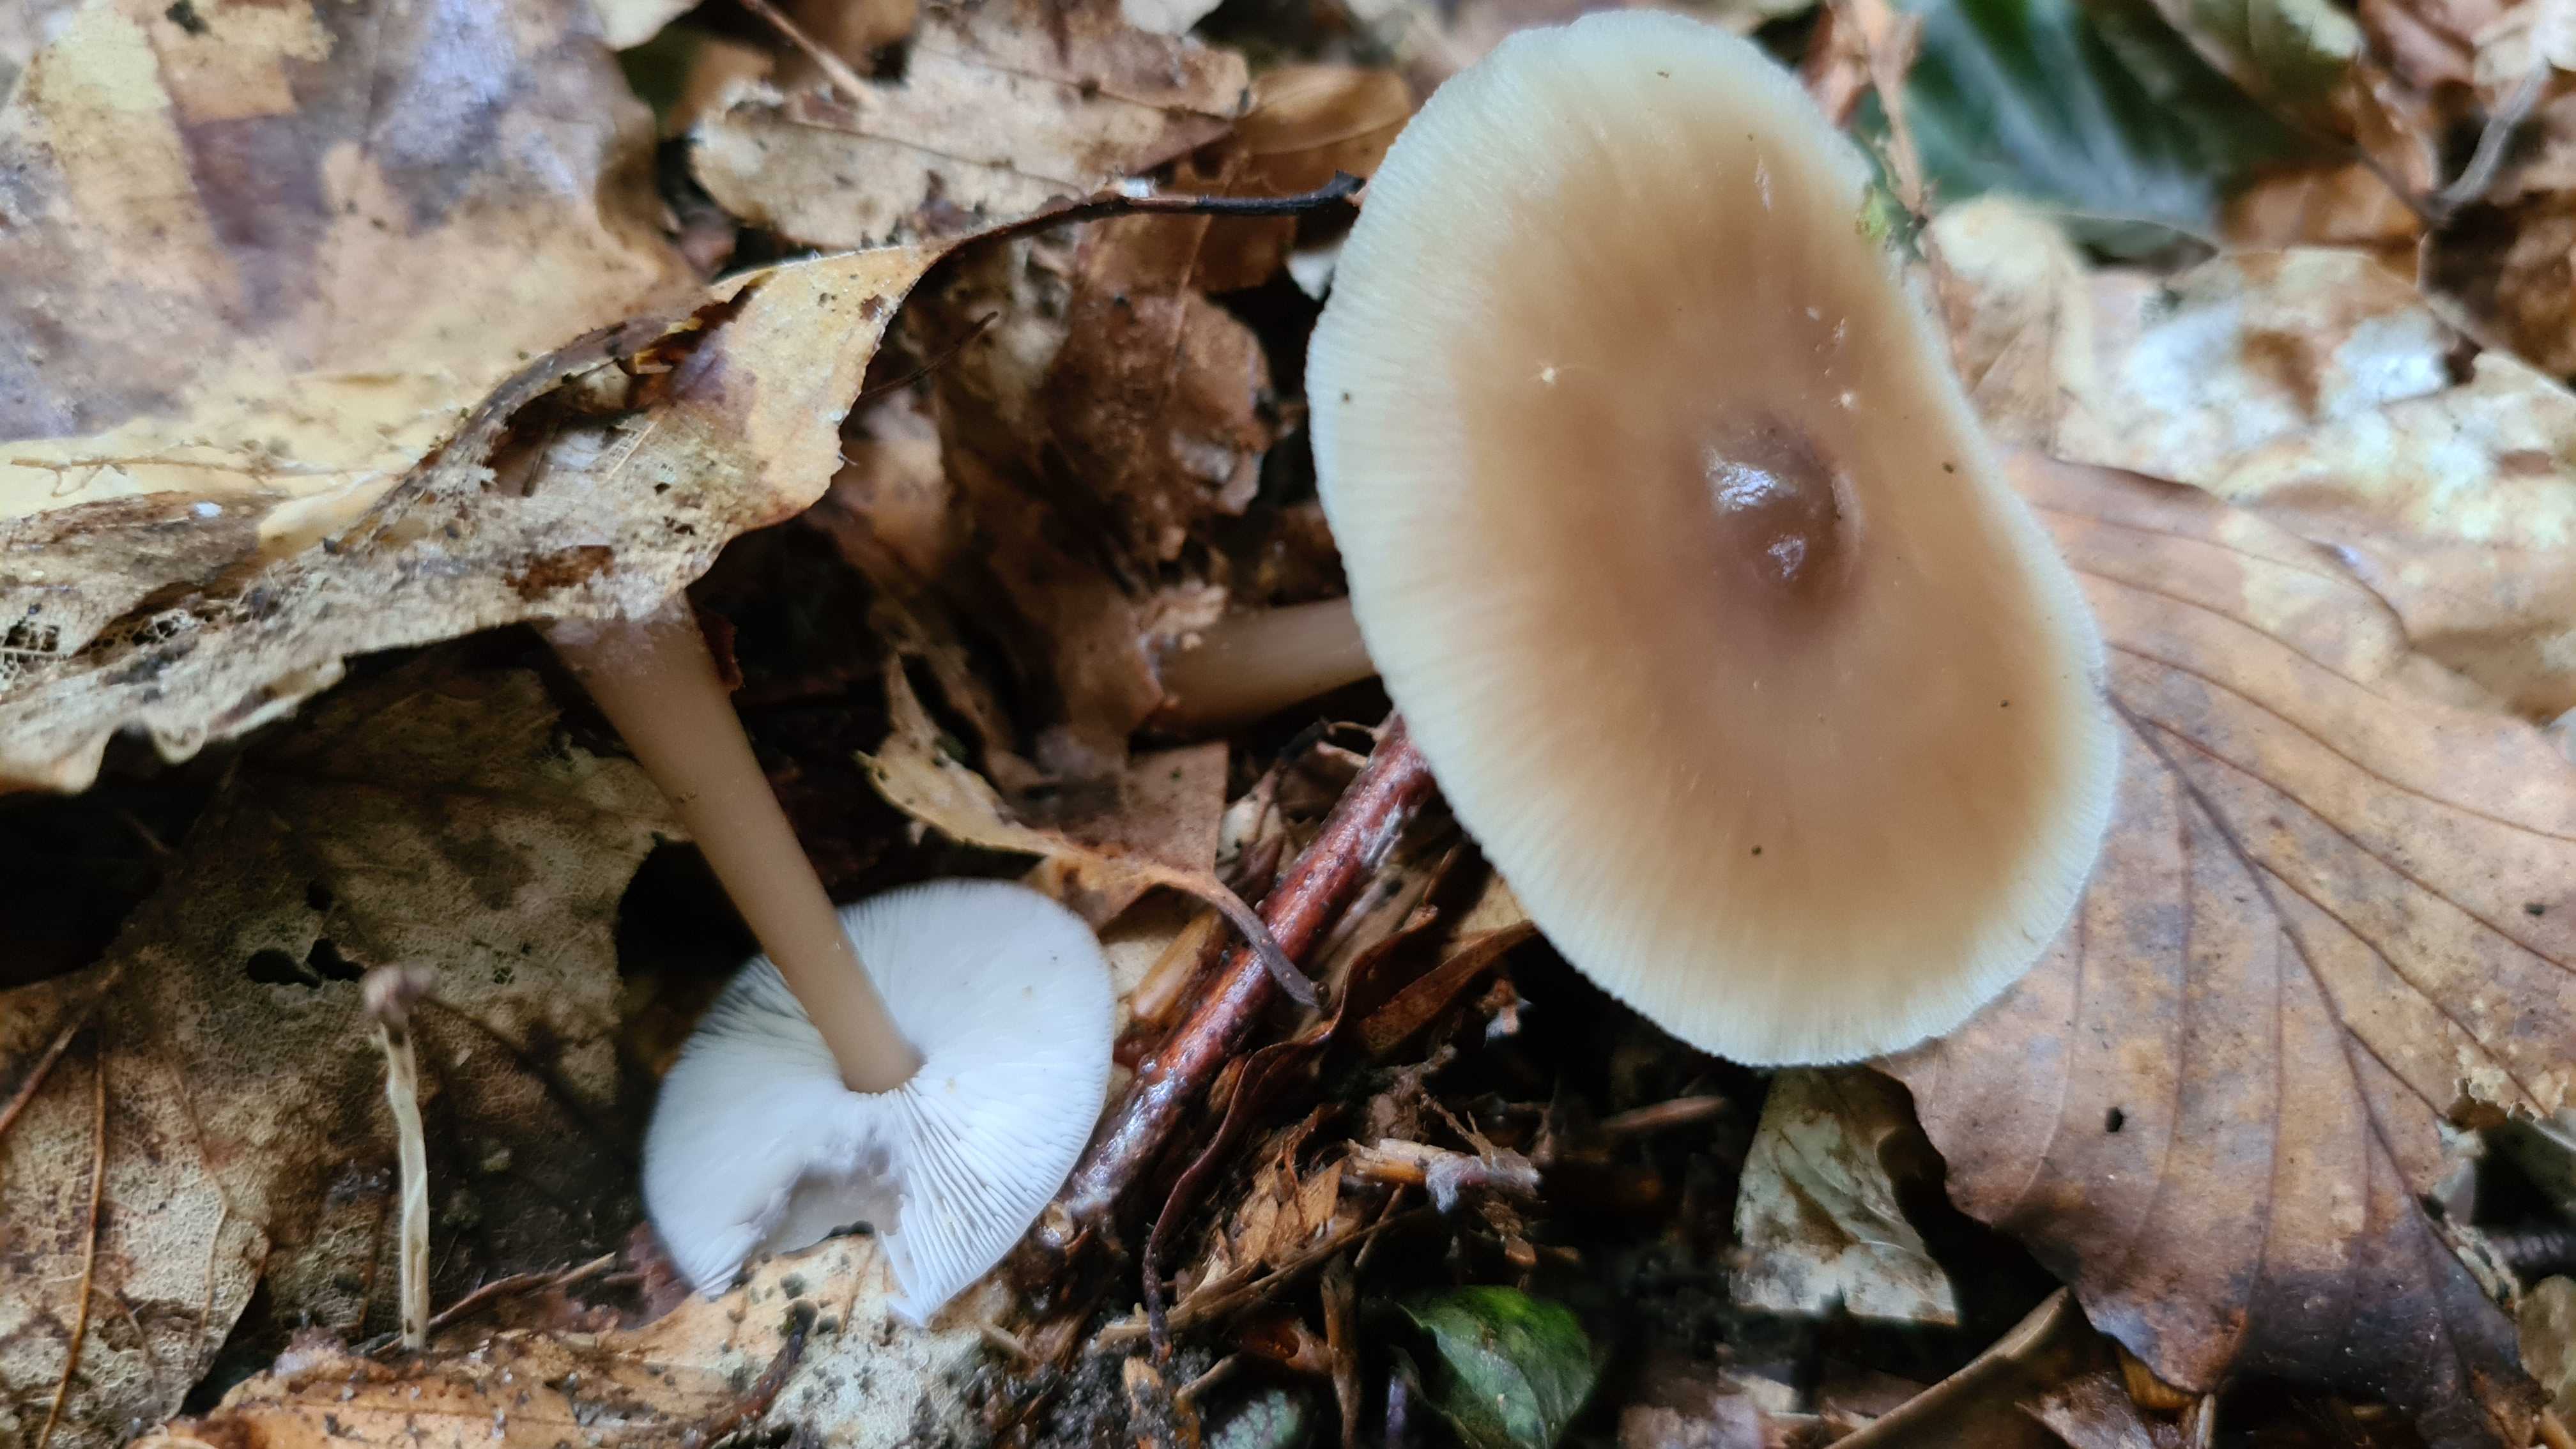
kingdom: Fungi
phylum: Basidiomycota
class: Agaricomycetes
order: Agaricales
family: Omphalotaceae
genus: Rhodocollybia
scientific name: Rhodocollybia asema
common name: horngrå fladhat
